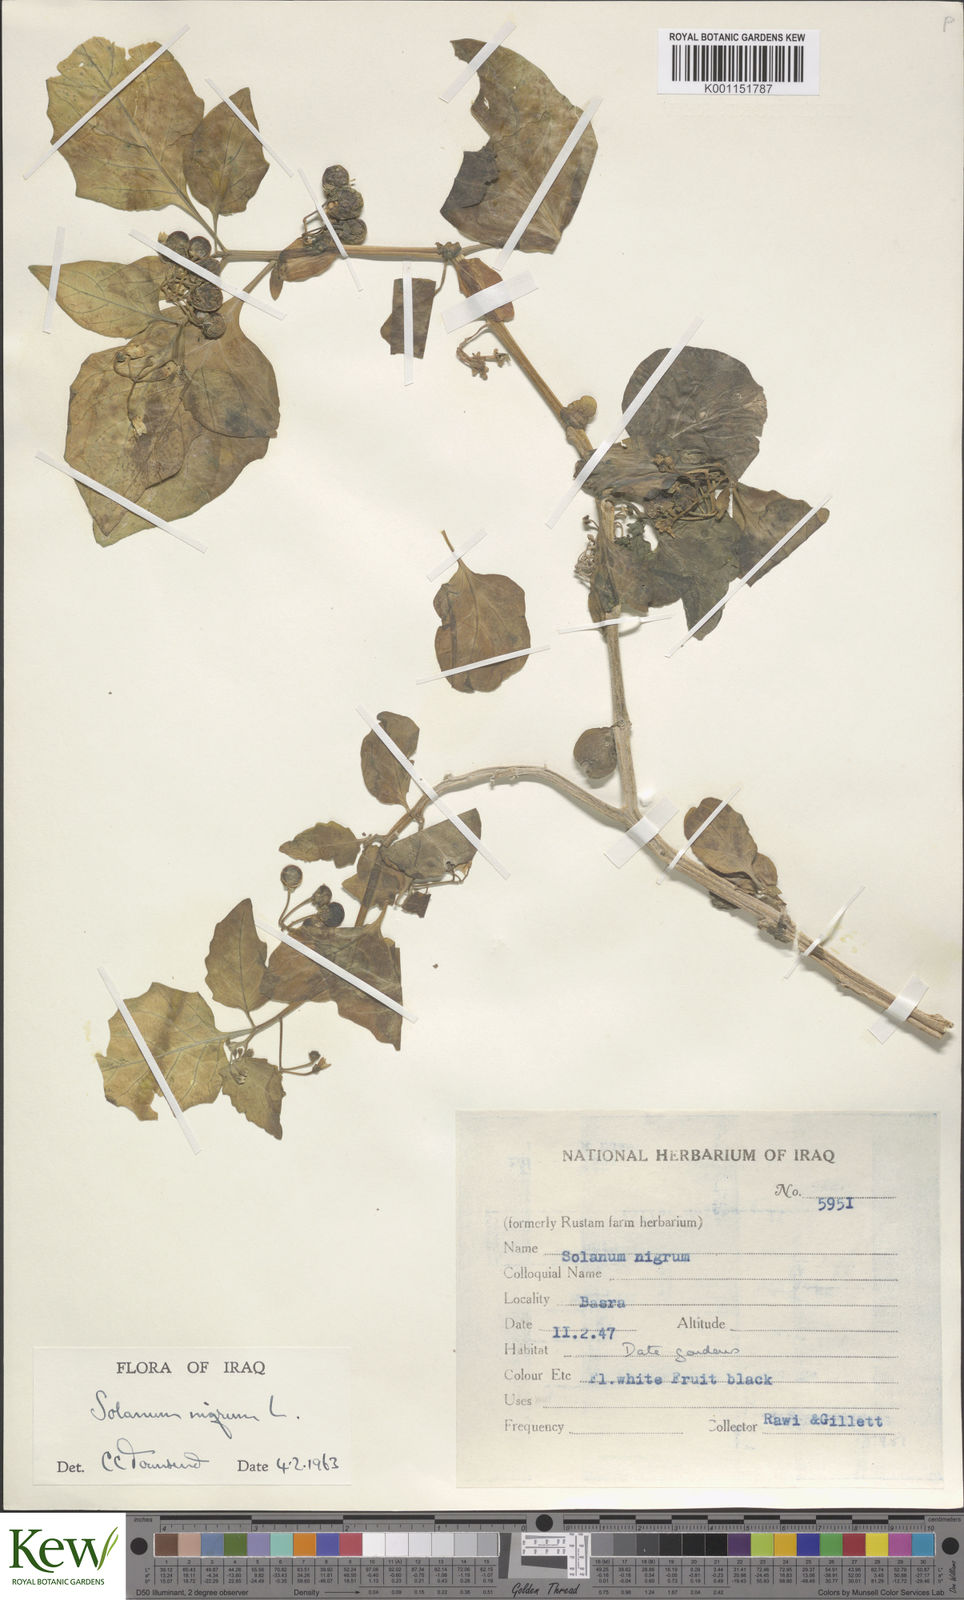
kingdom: Plantae
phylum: Tracheophyta
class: Magnoliopsida
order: Solanales
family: Solanaceae
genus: Solanum
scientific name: Solanum nigrum
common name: Black nightshade
